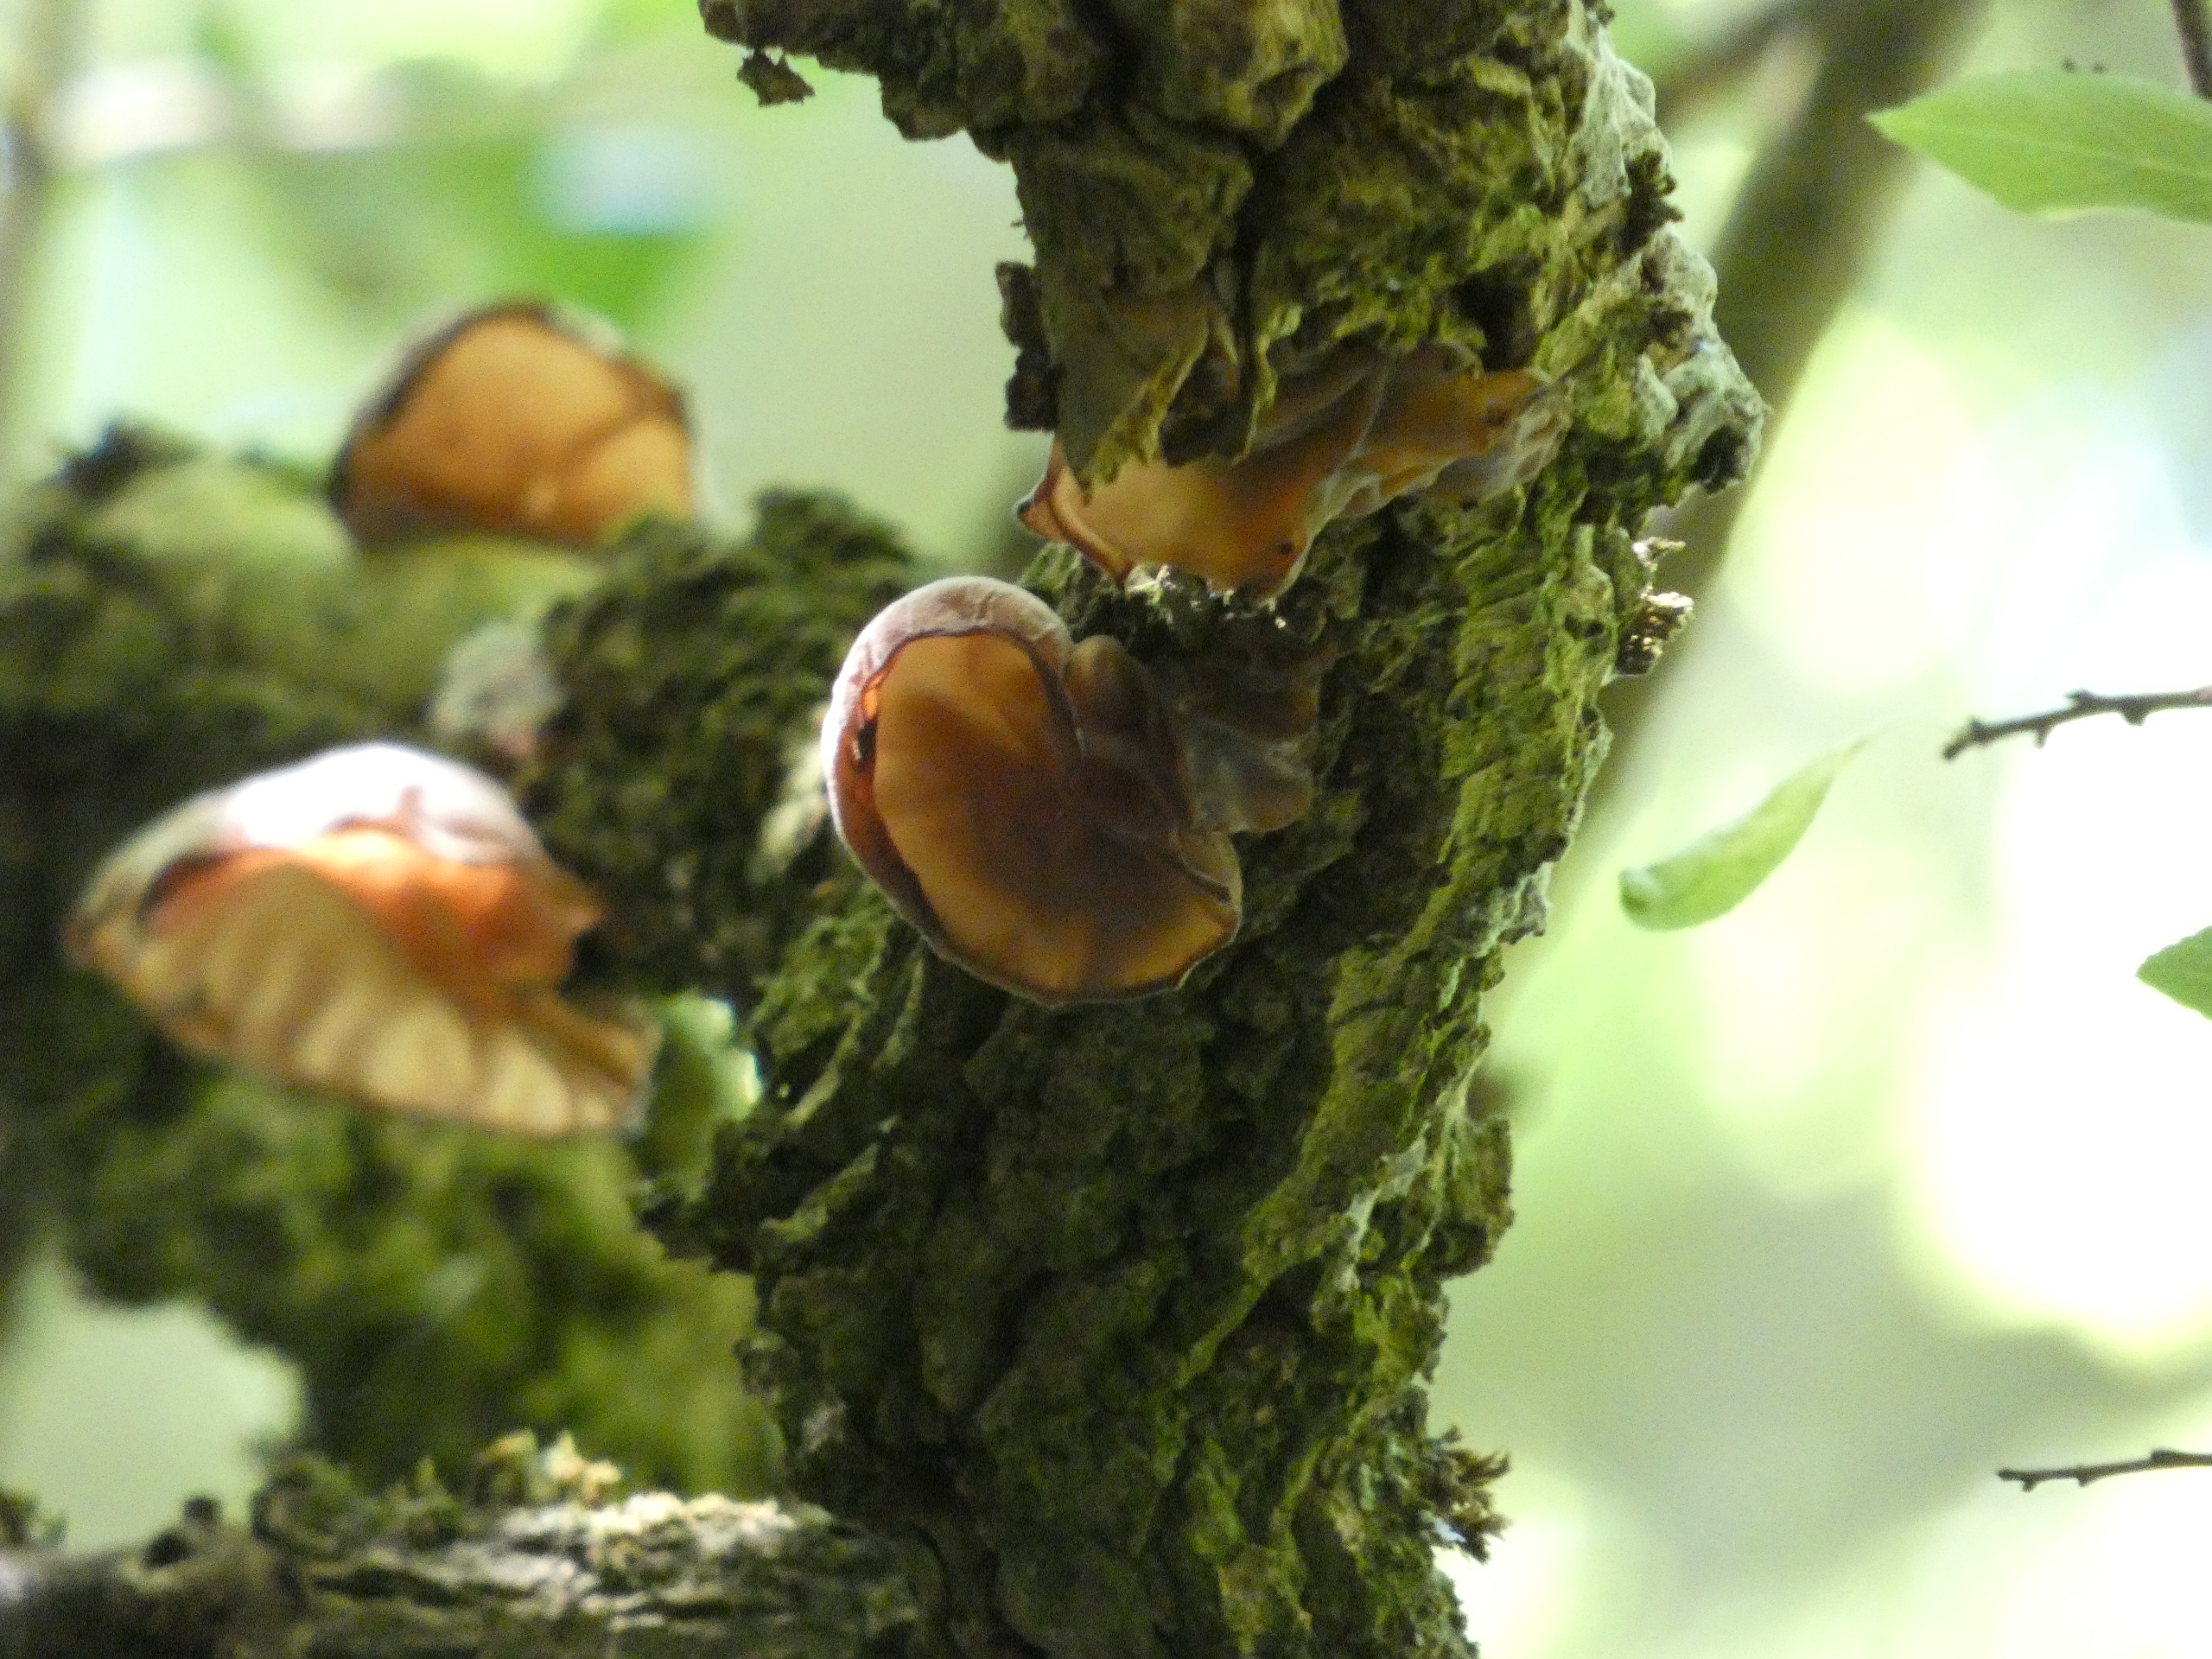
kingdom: Fungi
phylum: Basidiomycota
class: Agaricomycetes
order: Auriculariales
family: Auriculariaceae
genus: Auricularia
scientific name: Auricularia auricula-judae
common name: Almindelig judasøre
